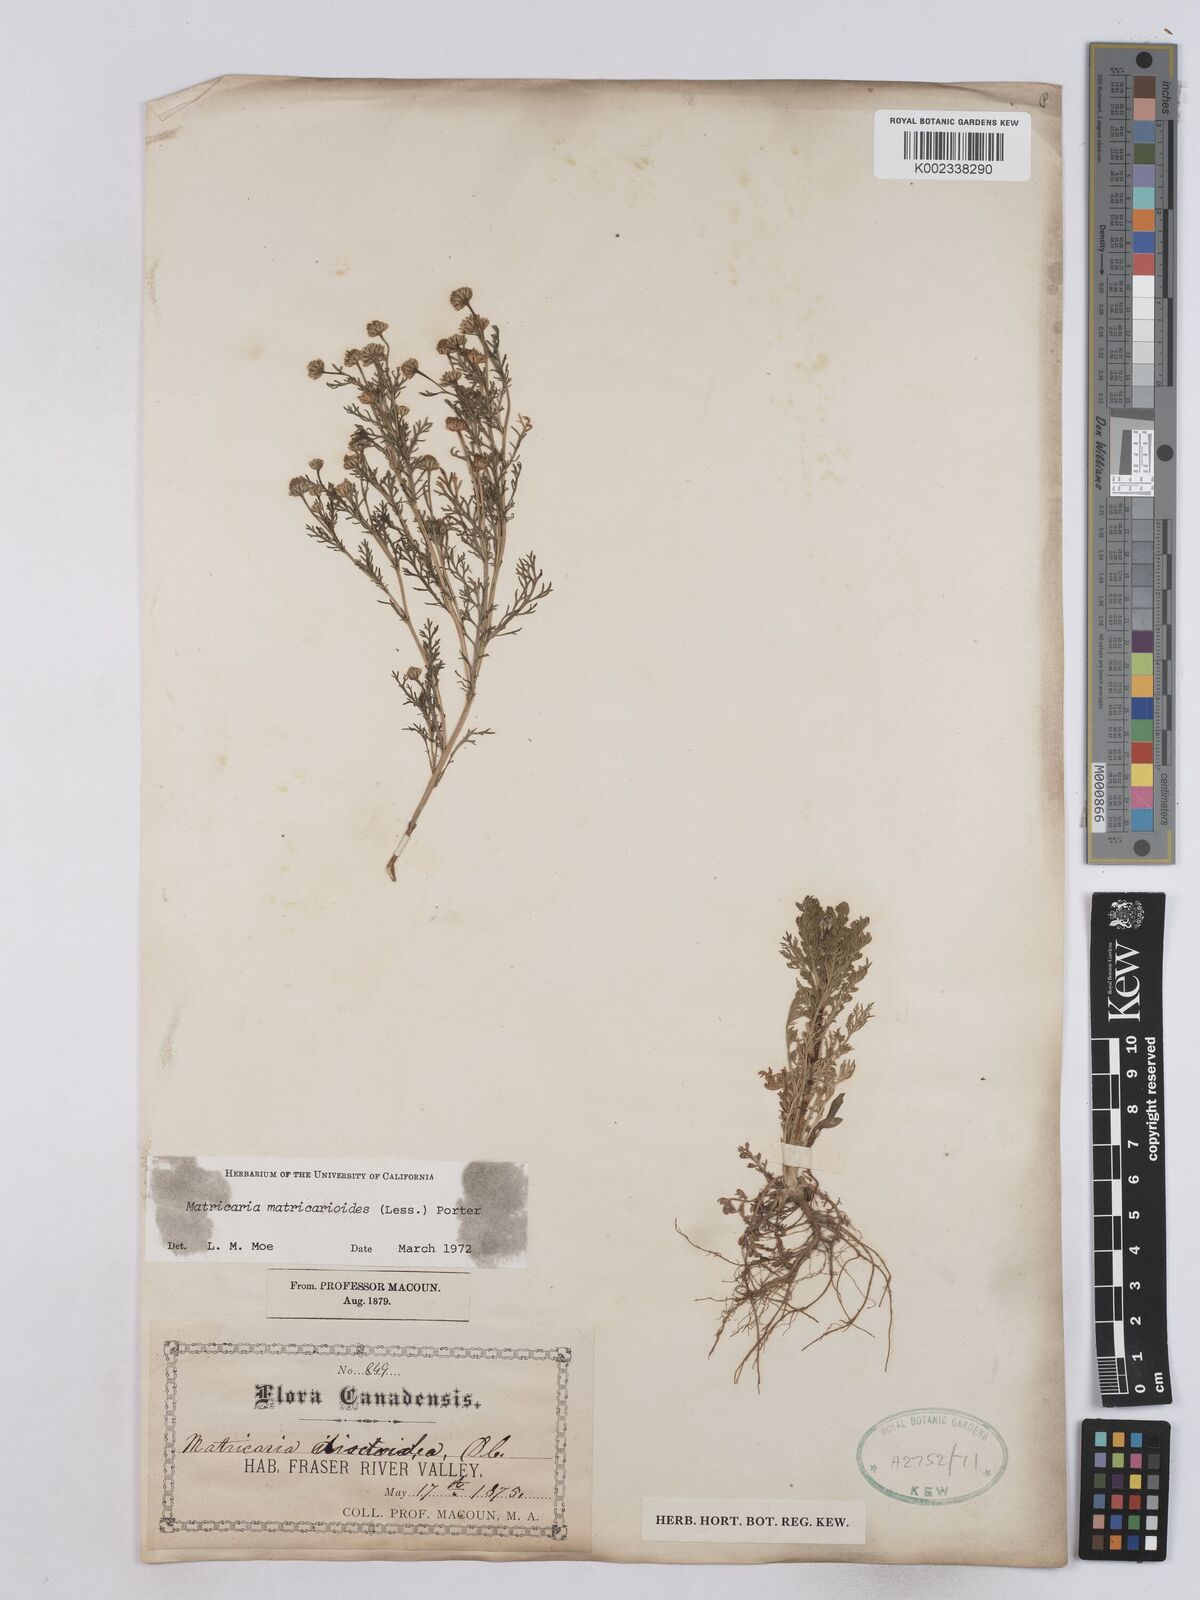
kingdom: Plantae
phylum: Tracheophyta
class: Magnoliopsida
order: Asterales
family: Asteraceae
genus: Matricaria
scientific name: Matricaria discoidea
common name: Disc mayweed
